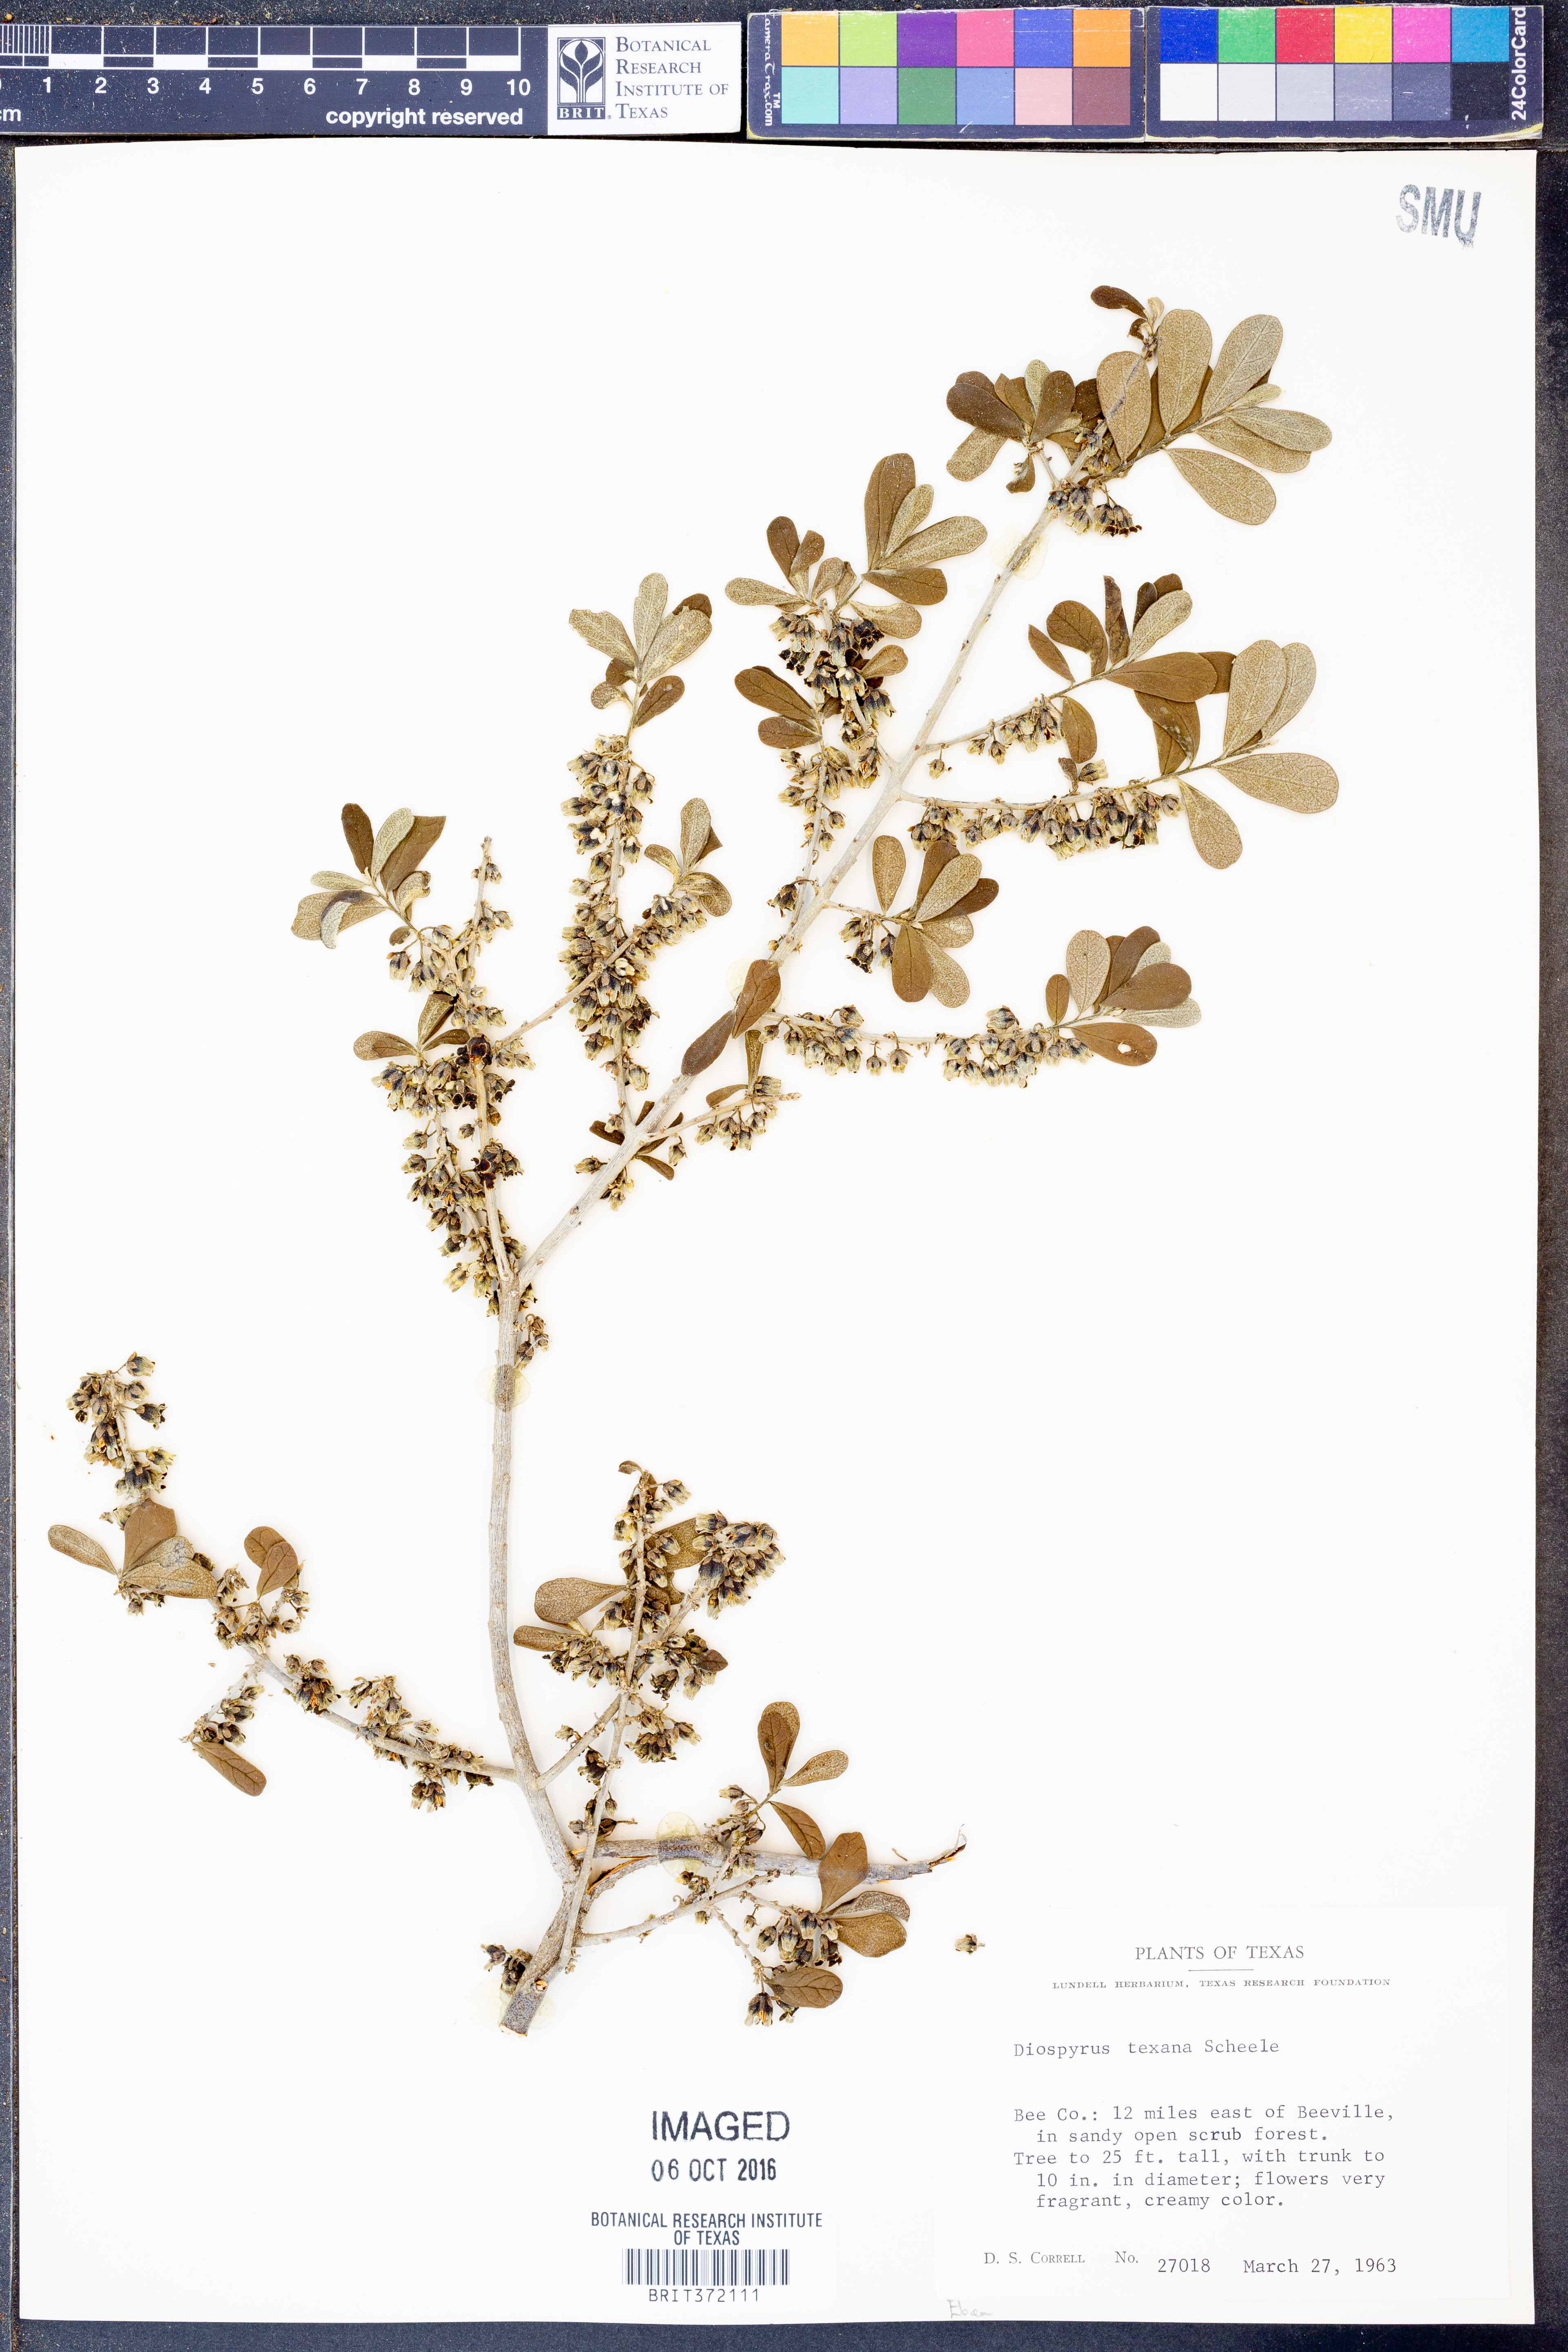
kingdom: Plantae
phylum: Tracheophyta
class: Magnoliopsida
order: Ericales
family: Ebenaceae
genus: Diospyros
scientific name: Diospyros texana
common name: Texas persimmon
